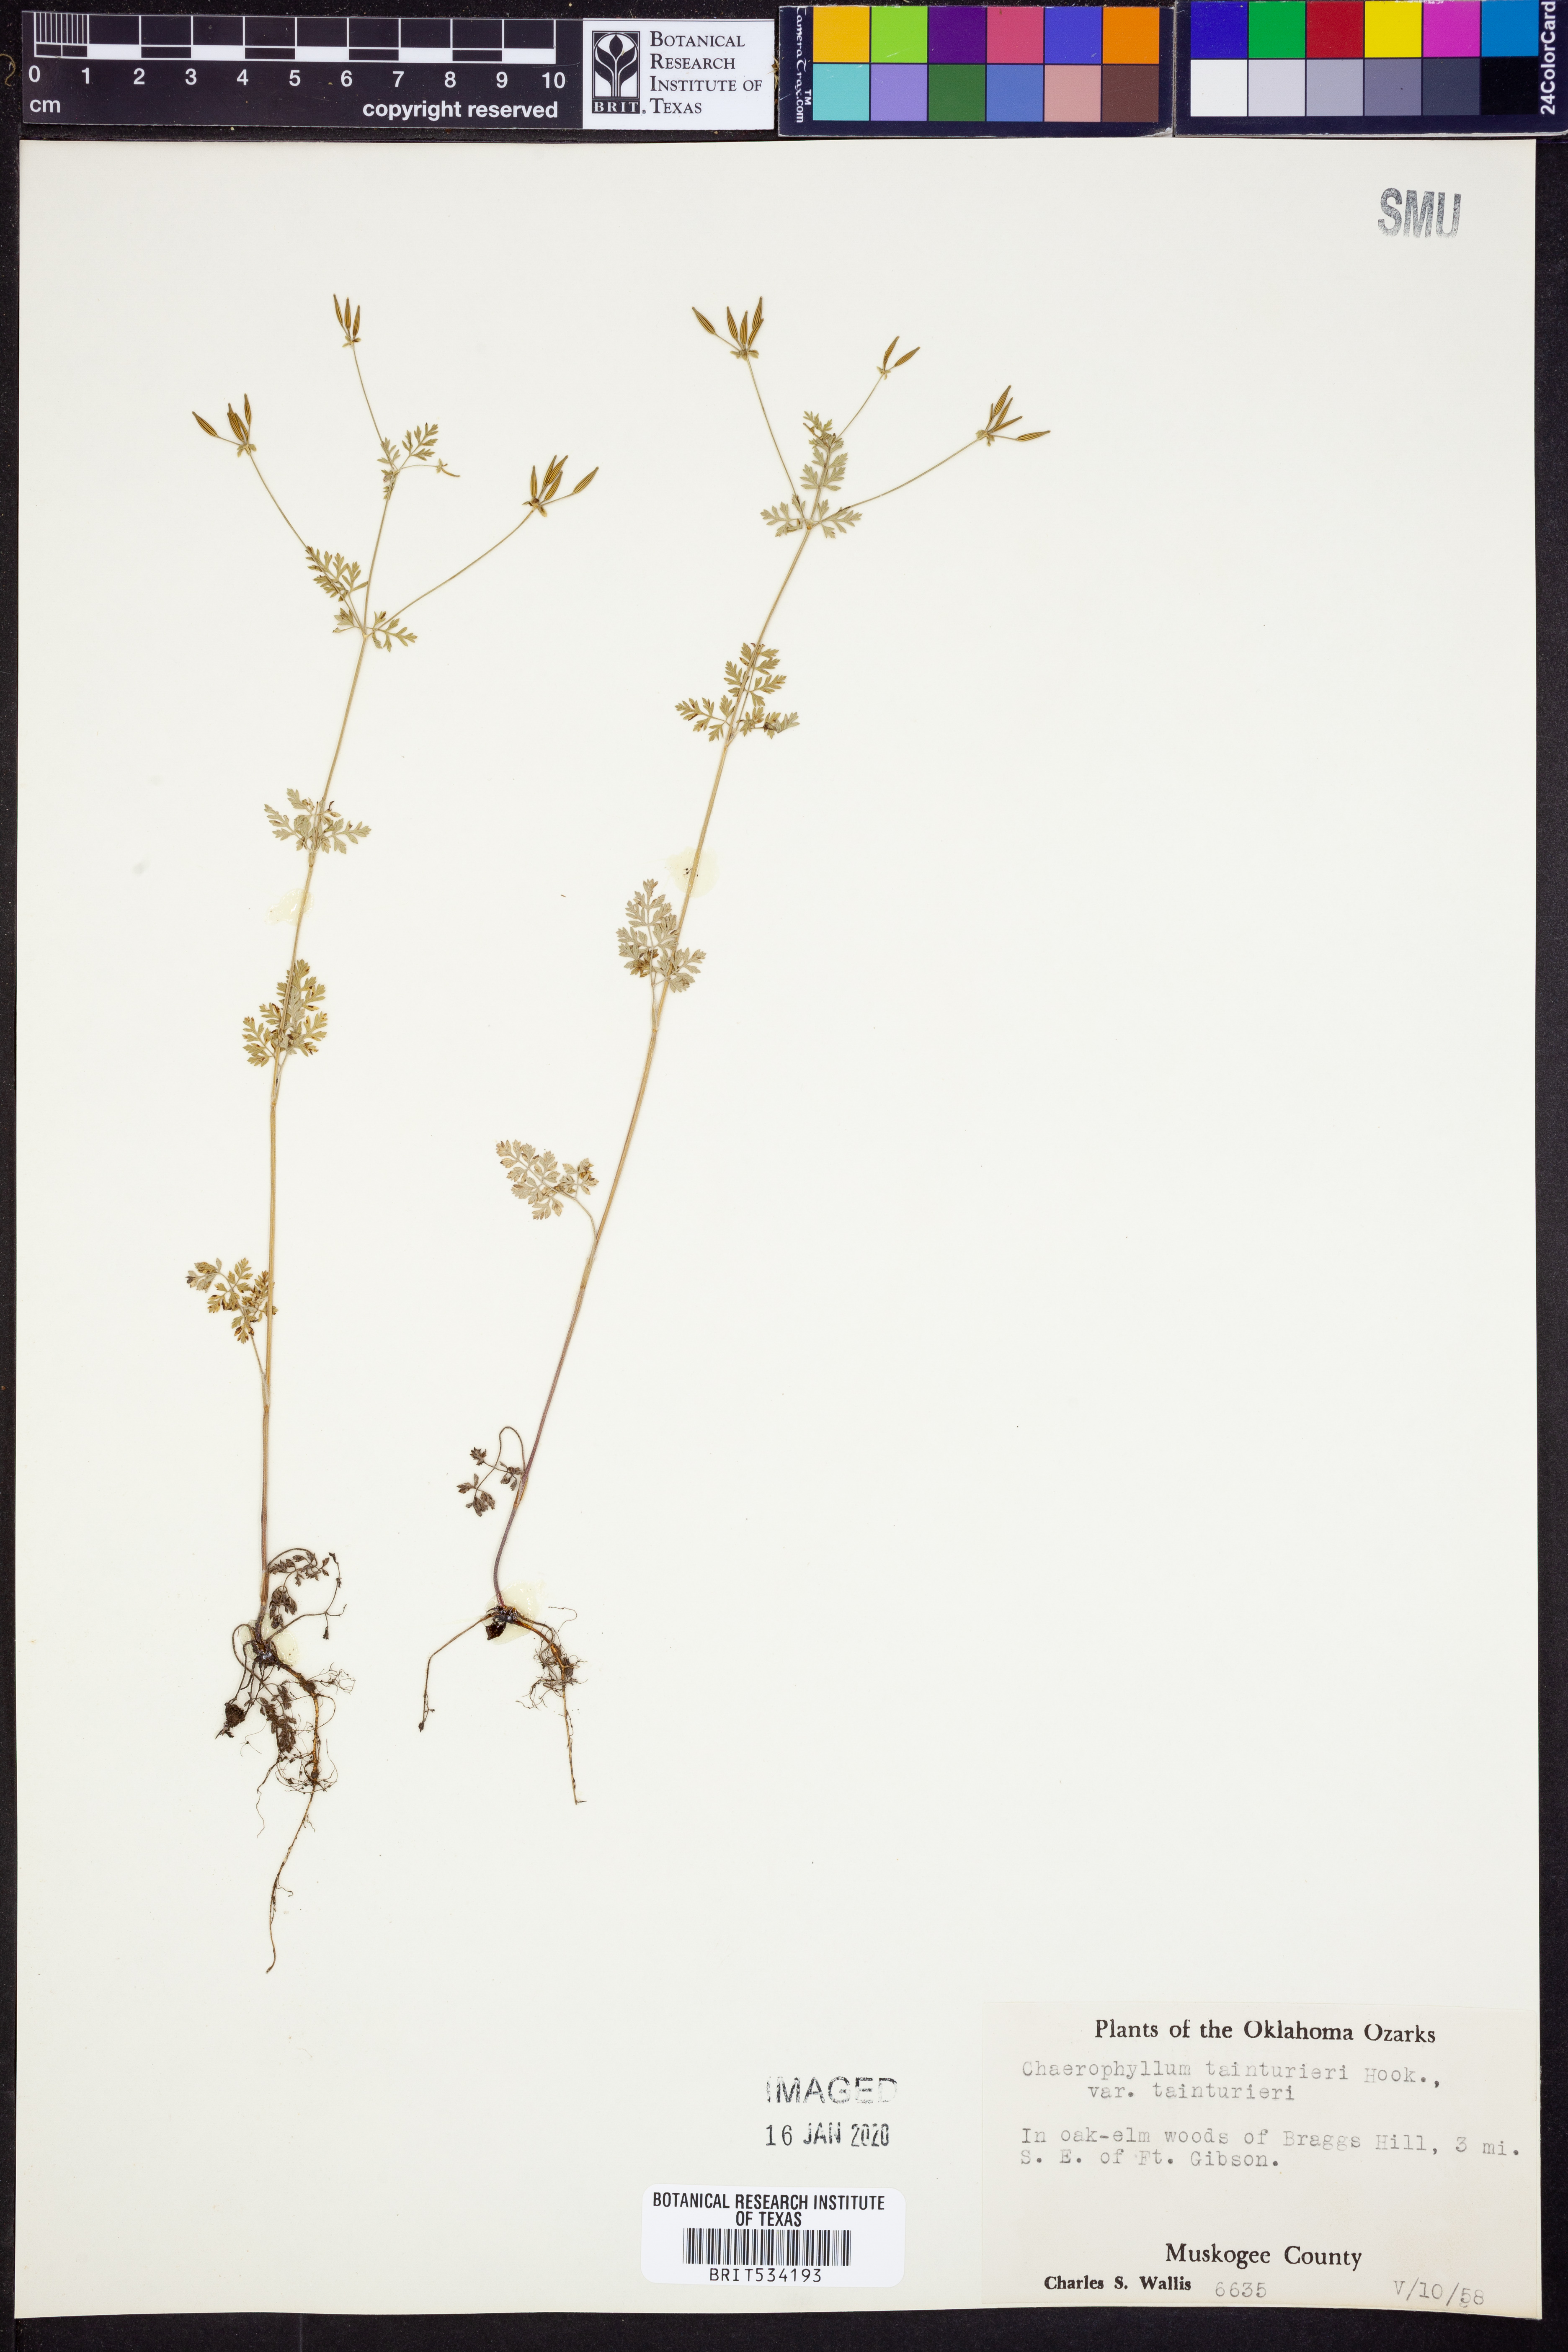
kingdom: Plantae
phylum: Tracheophyta
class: Magnoliopsida
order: Apiales
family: Apiaceae
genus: Chaerophyllum
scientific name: Chaerophyllum tainturieri
